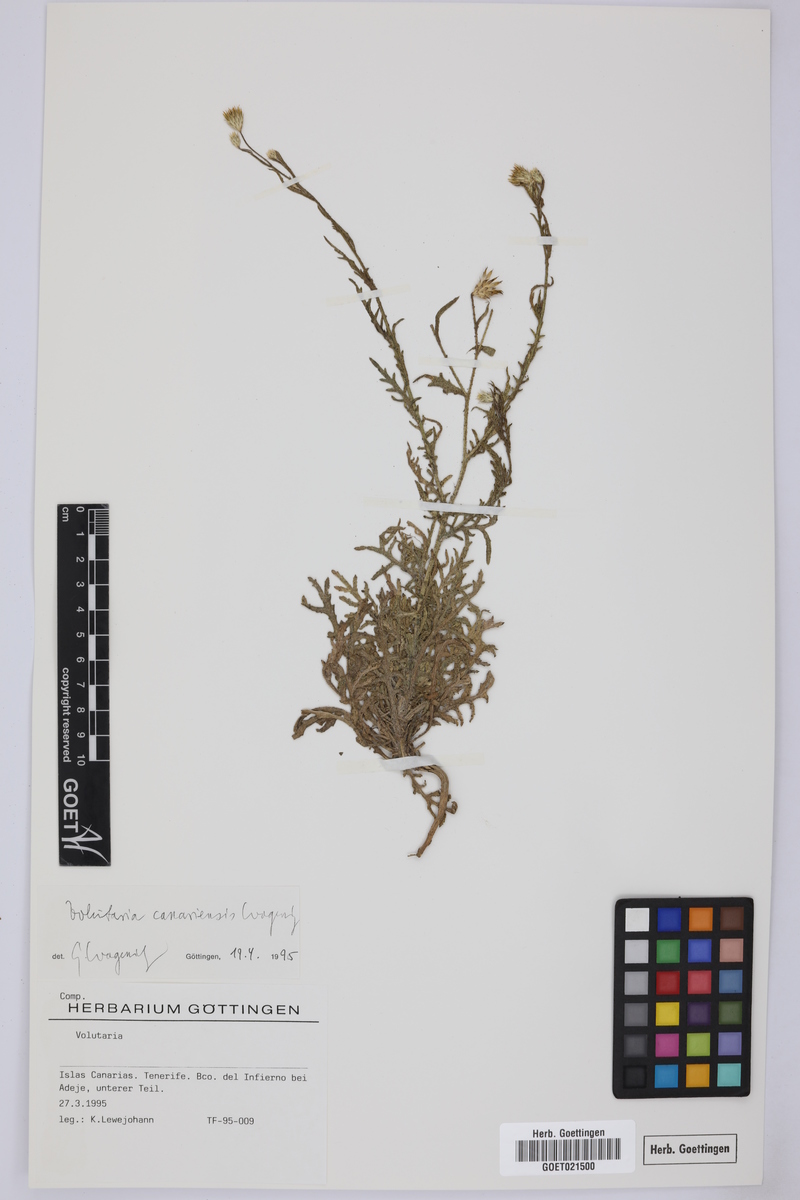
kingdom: Plantae
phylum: Tracheophyta
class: Magnoliopsida
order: Asterales
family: Asteraceae
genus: Volutaria
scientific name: Volutaria canariensis
